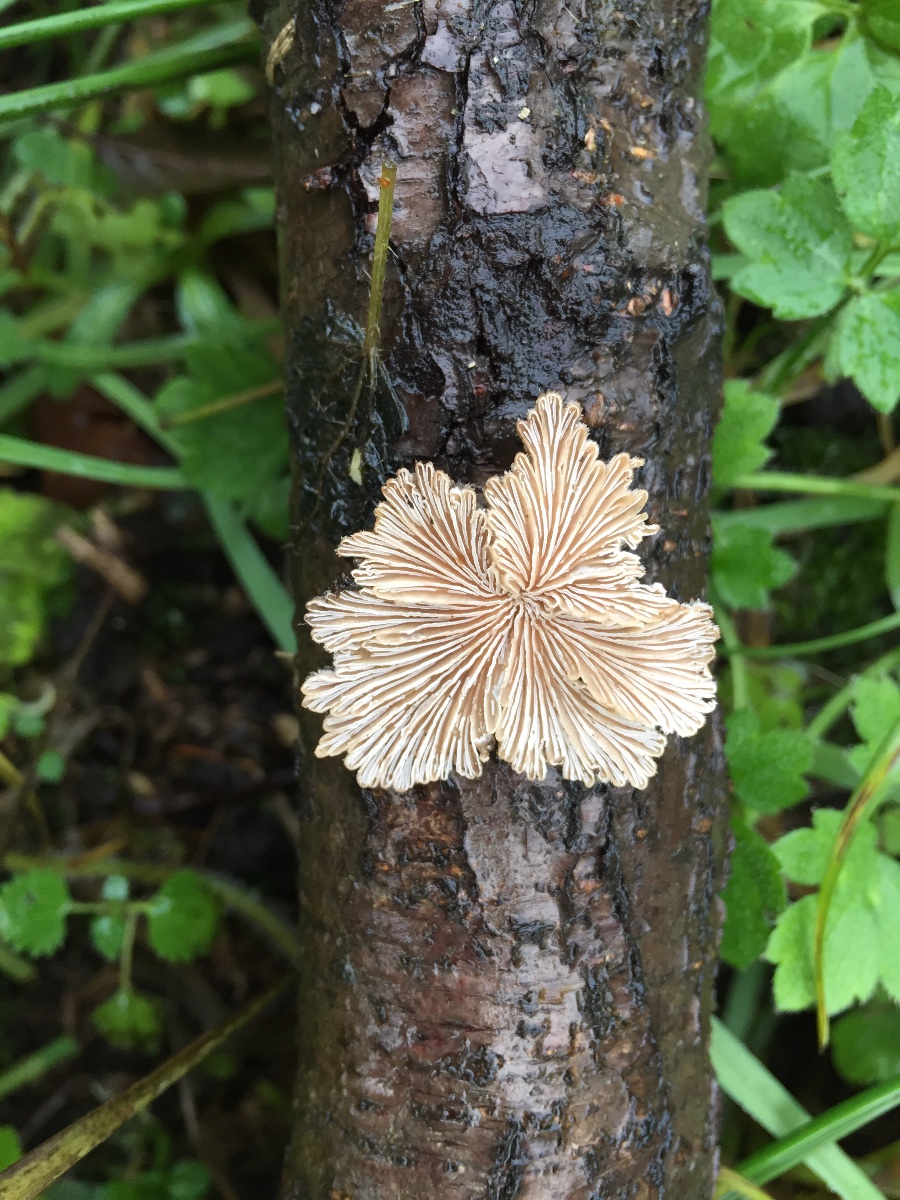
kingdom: Fungi
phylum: Basidiomycota
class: Agaricomycetes
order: Agaricales
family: Schizophyllaceae
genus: Schizophyllum
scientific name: Schizophyllum commune
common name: kløvblad
